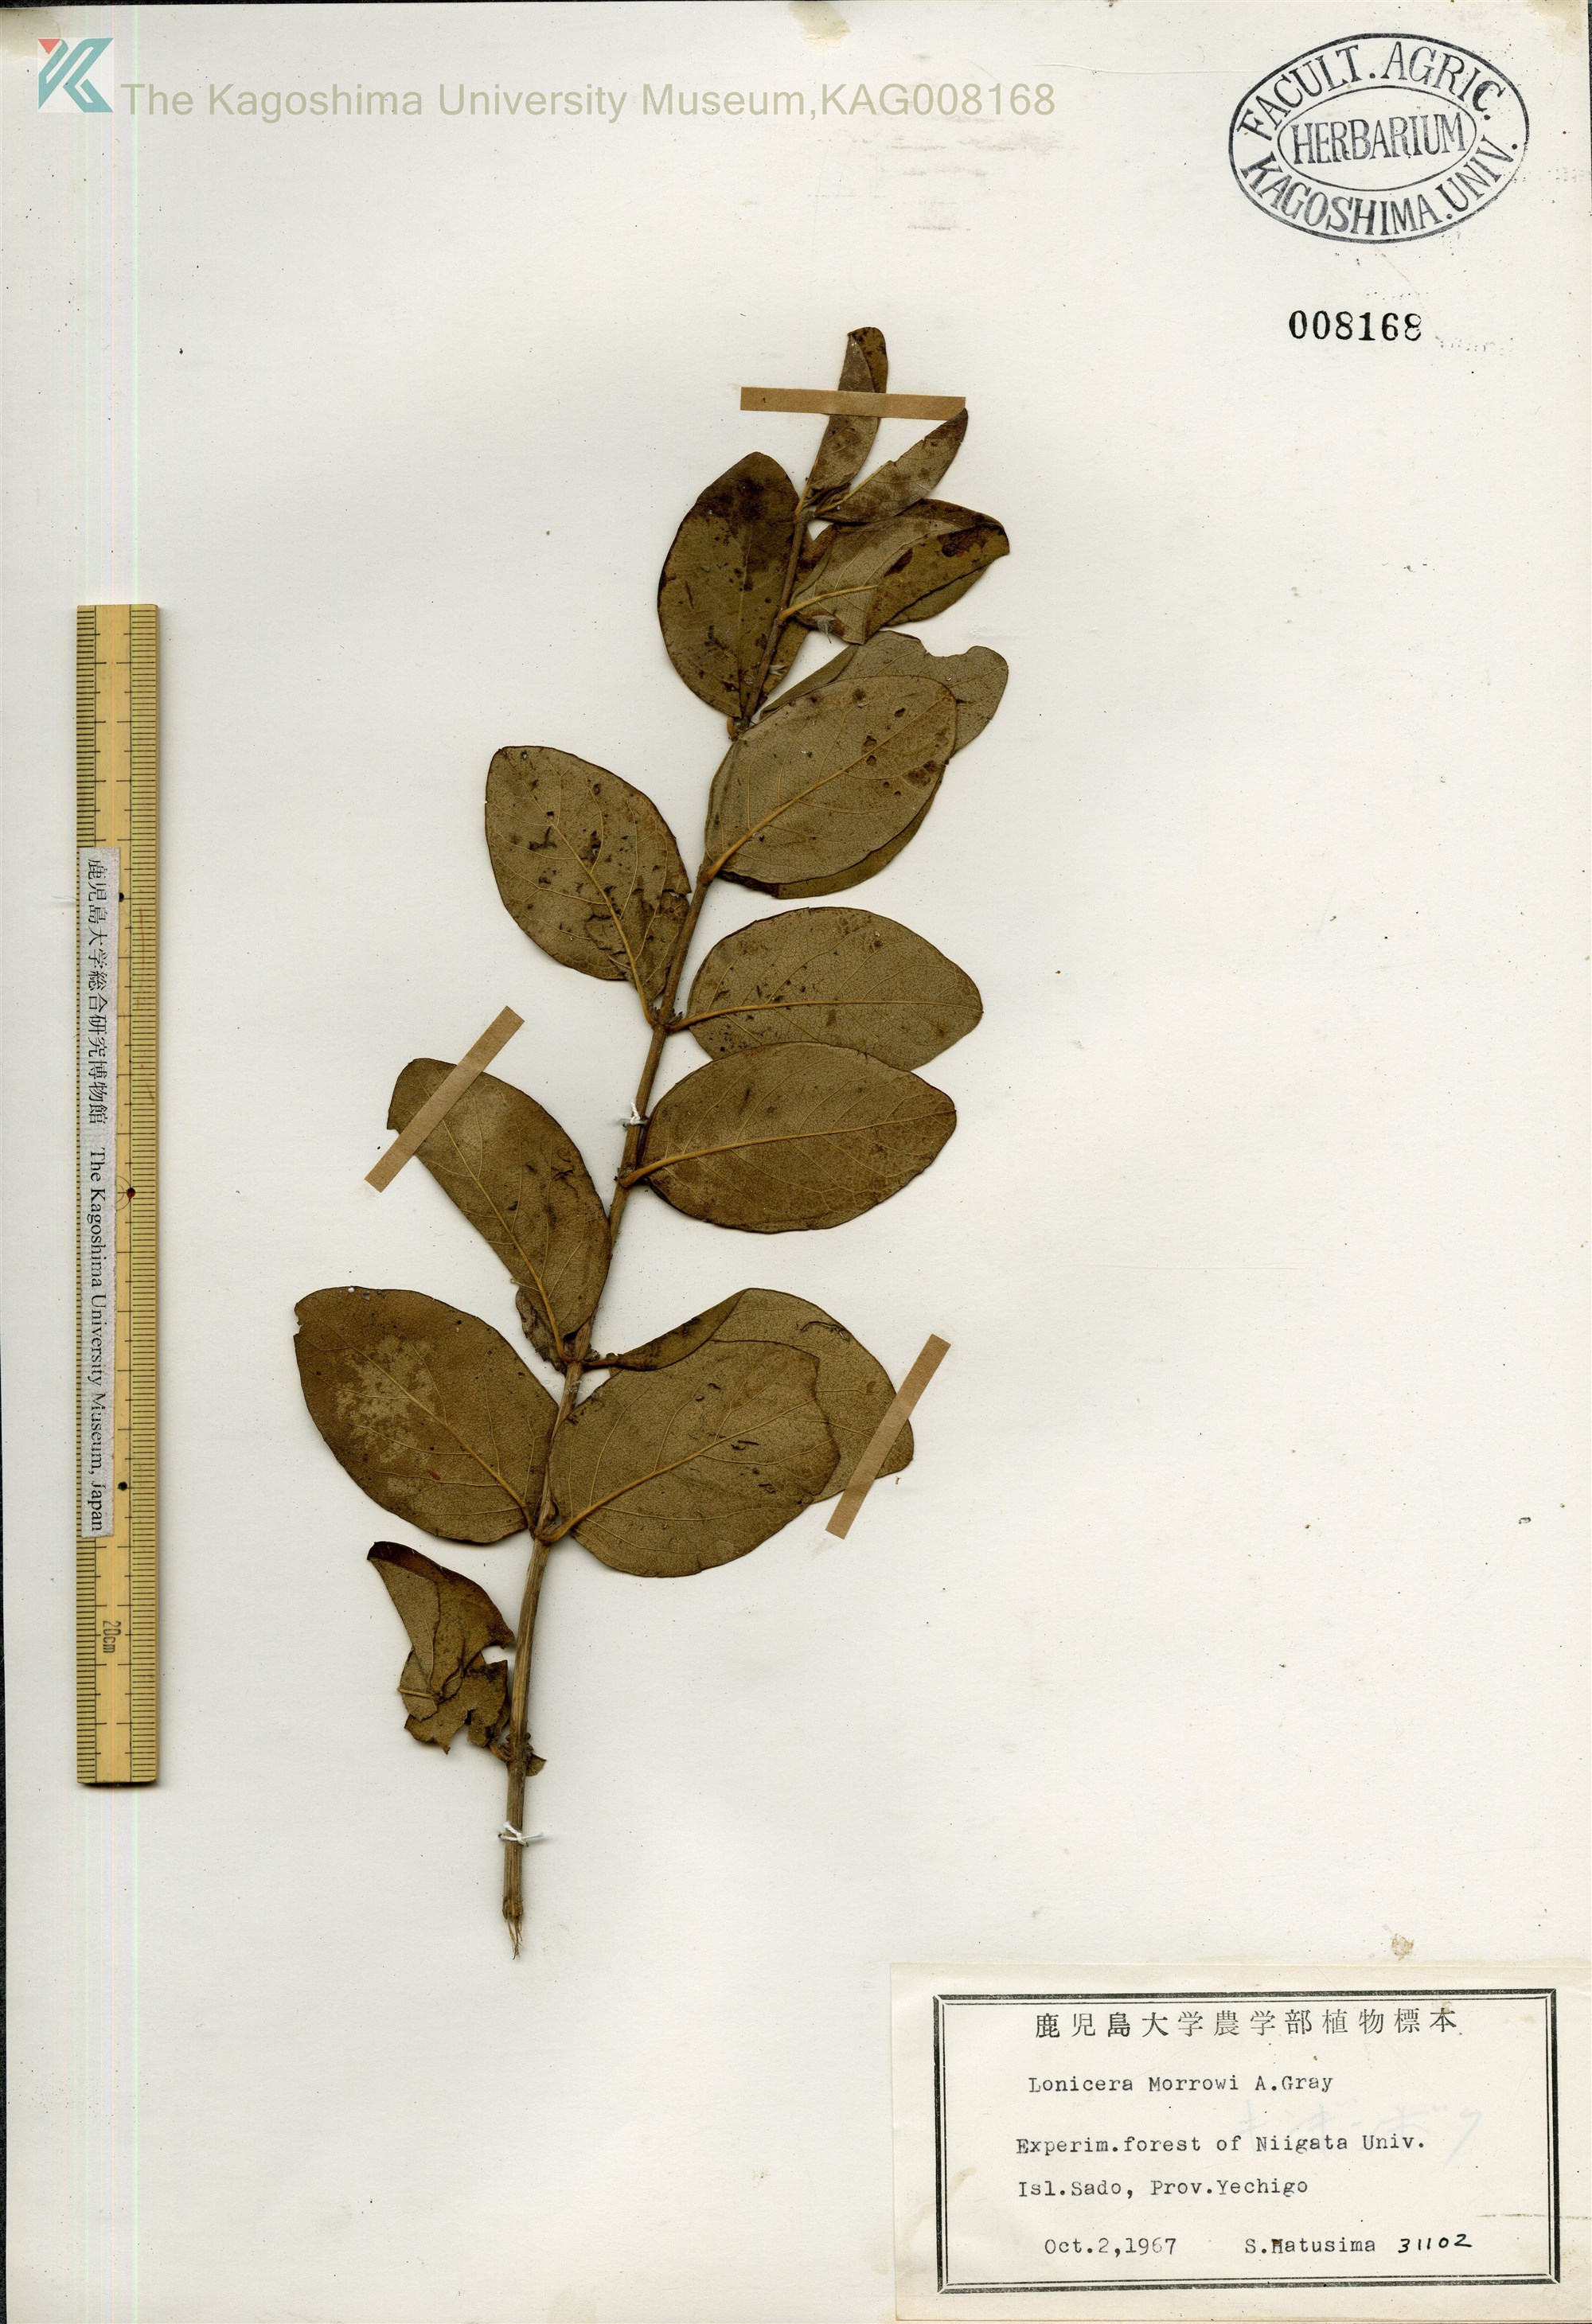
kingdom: Plantae
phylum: Tracheophyta
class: Magnoliopsida
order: Dipsacales
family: Caprifoliaceae
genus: Lonicera
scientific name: Lonicera morrowii
